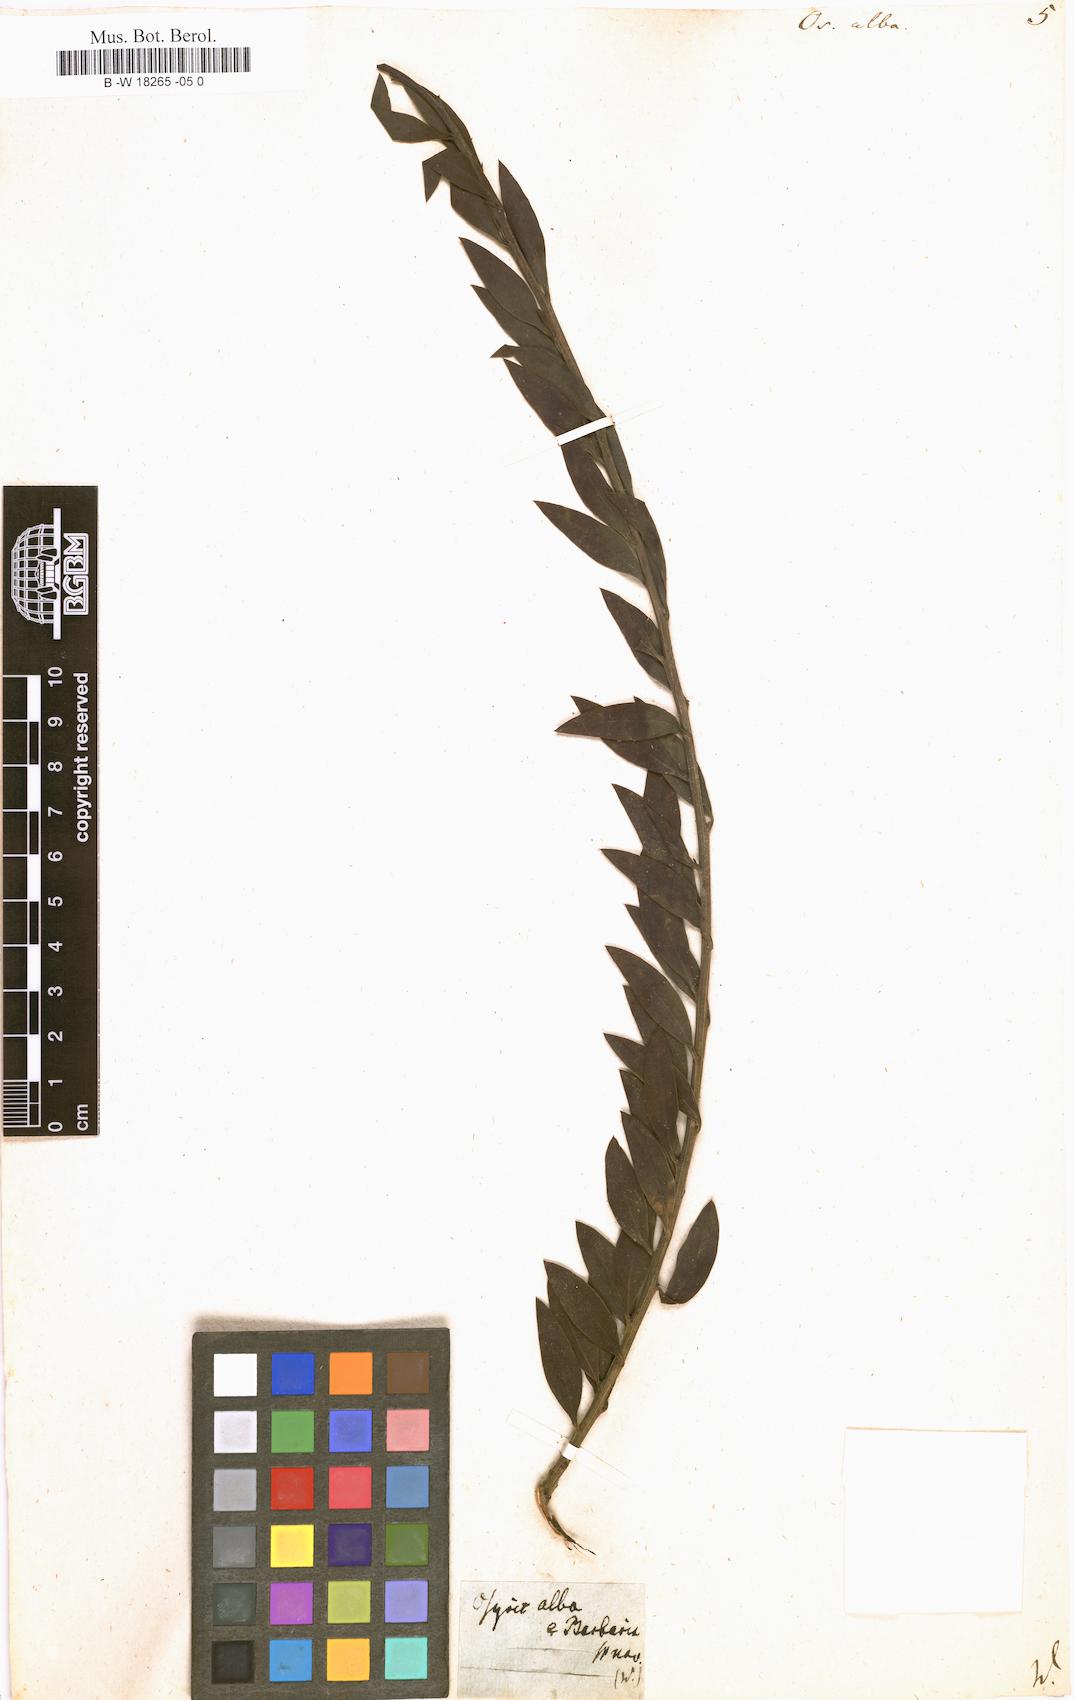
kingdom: Plantae
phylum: Tracheophyta
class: Magnoliopsida
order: Santalales
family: Santalaceae
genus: Osyris
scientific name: Osyris alba
